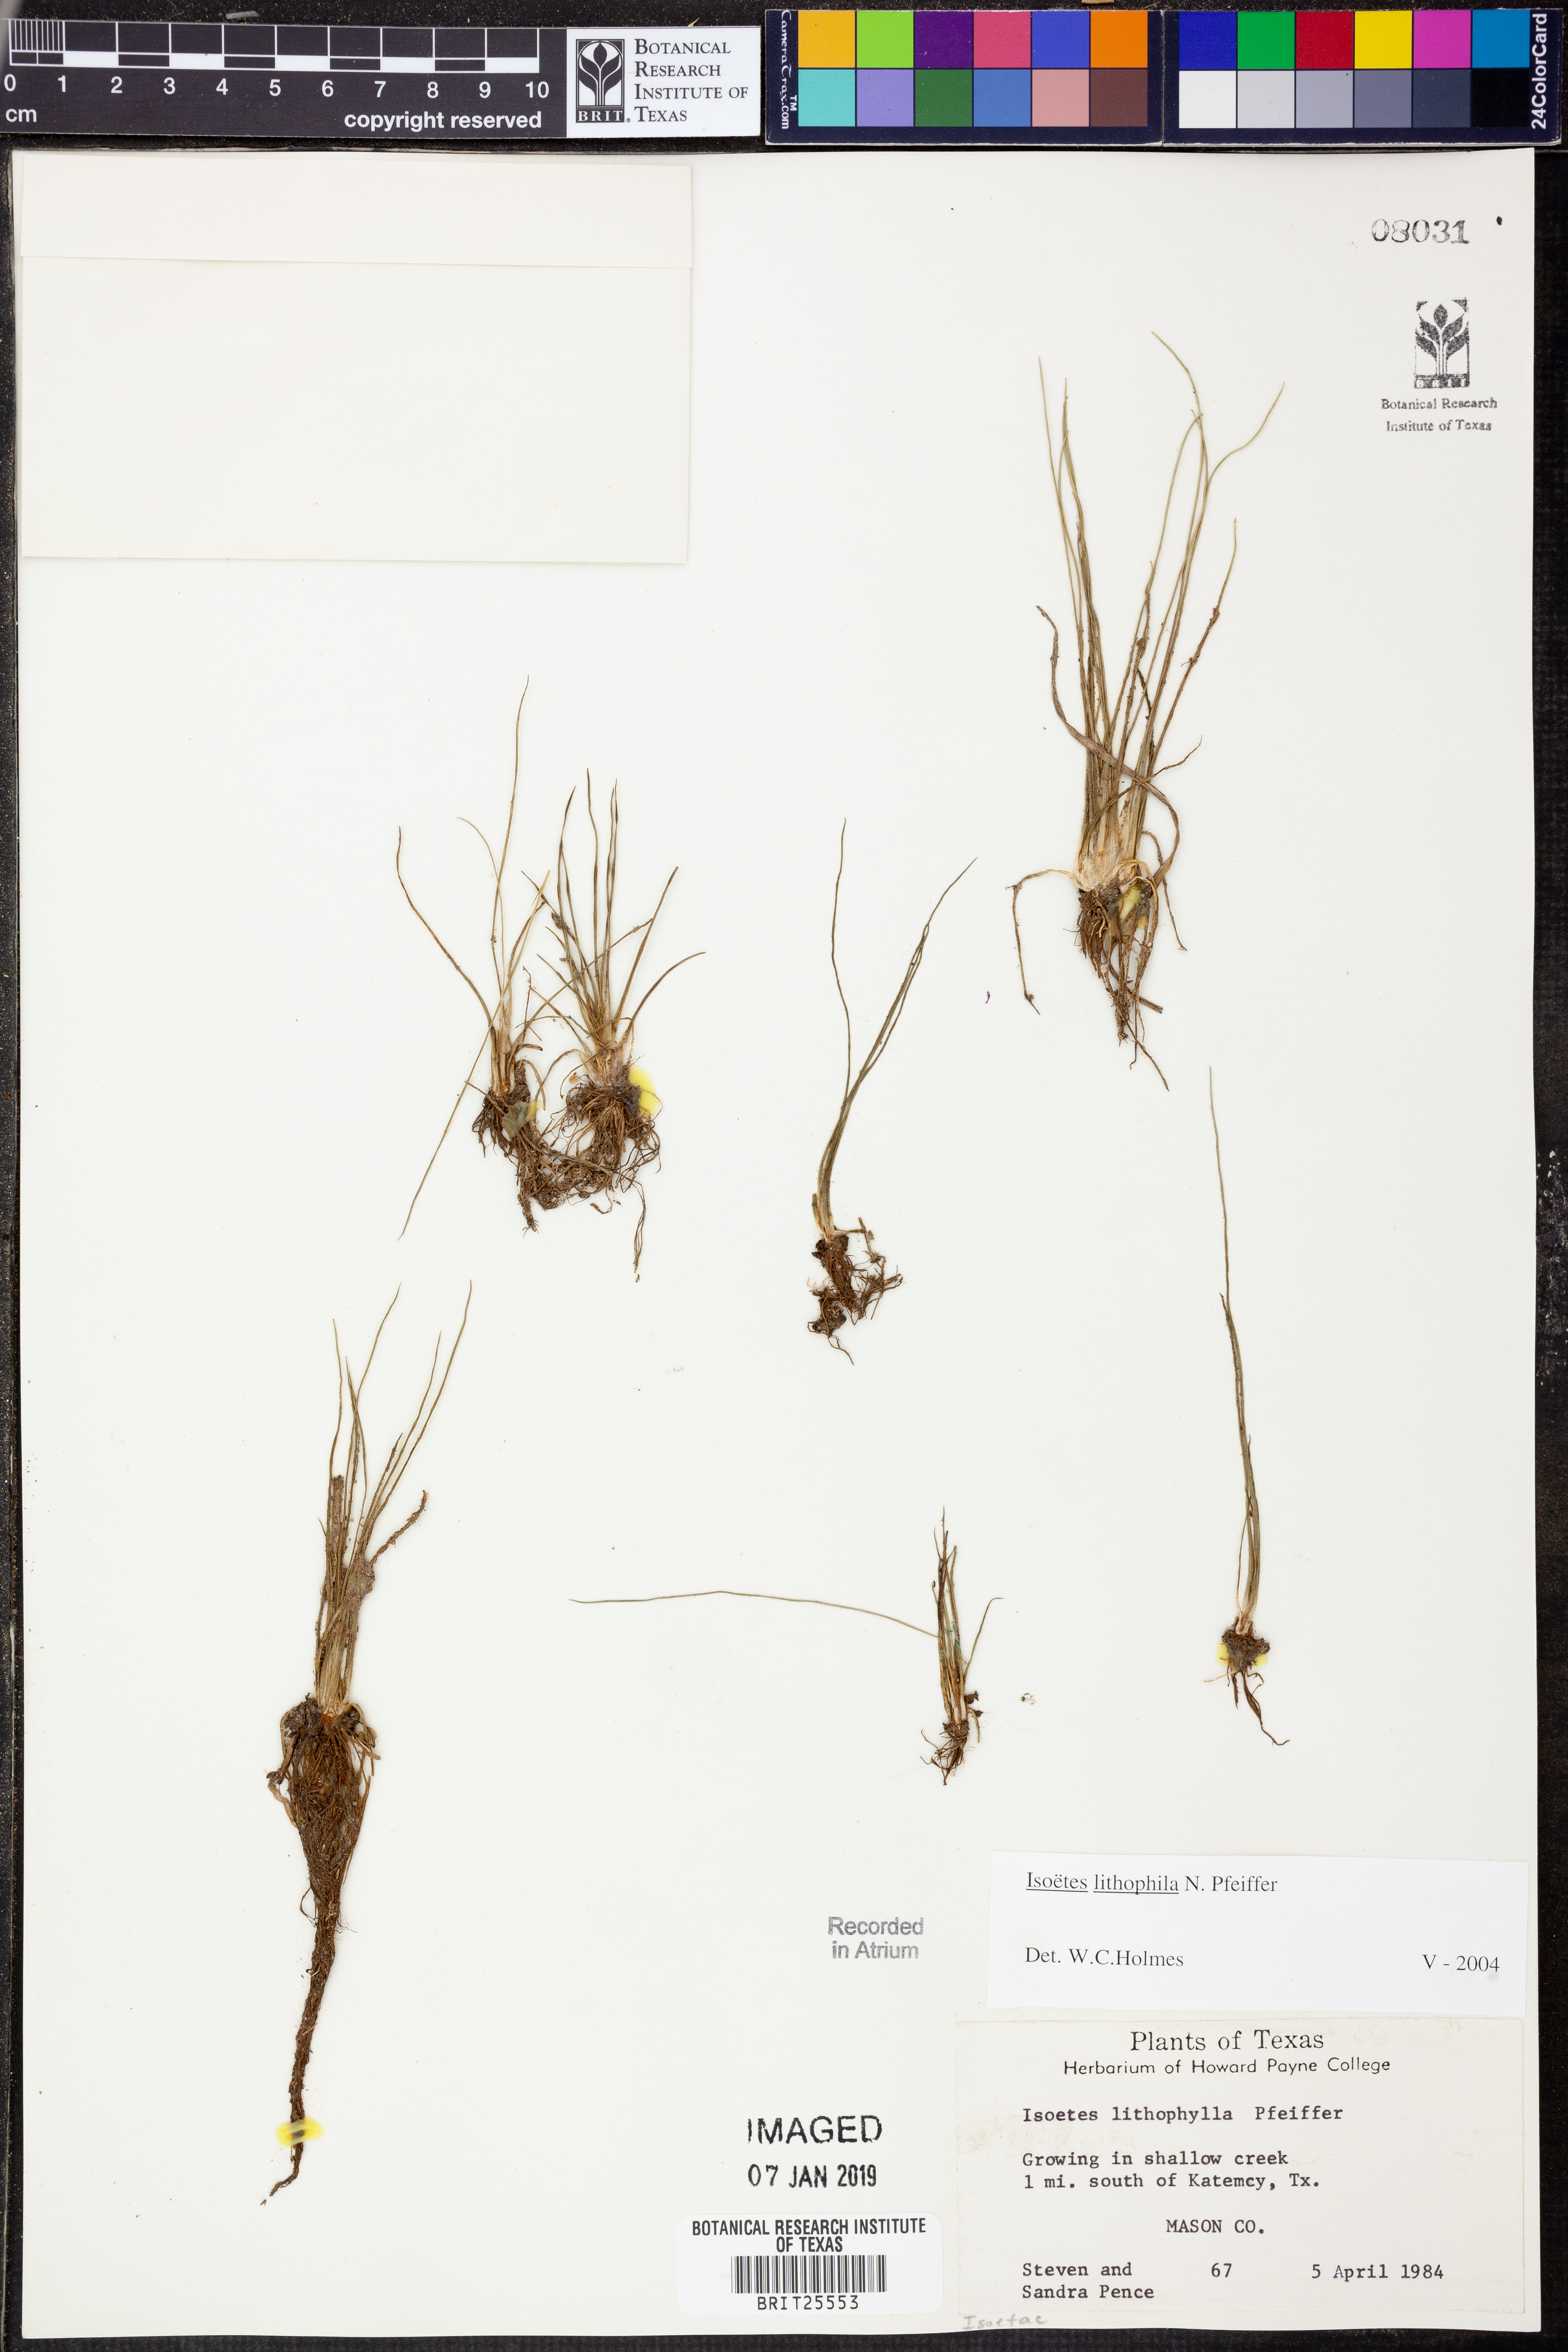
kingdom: Plantae
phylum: Tracheophyta
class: Lycopodiopsida
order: Isoetales
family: Isoetaceae
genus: Isoetes
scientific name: Isoetes lithophila
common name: Rock quillwort
